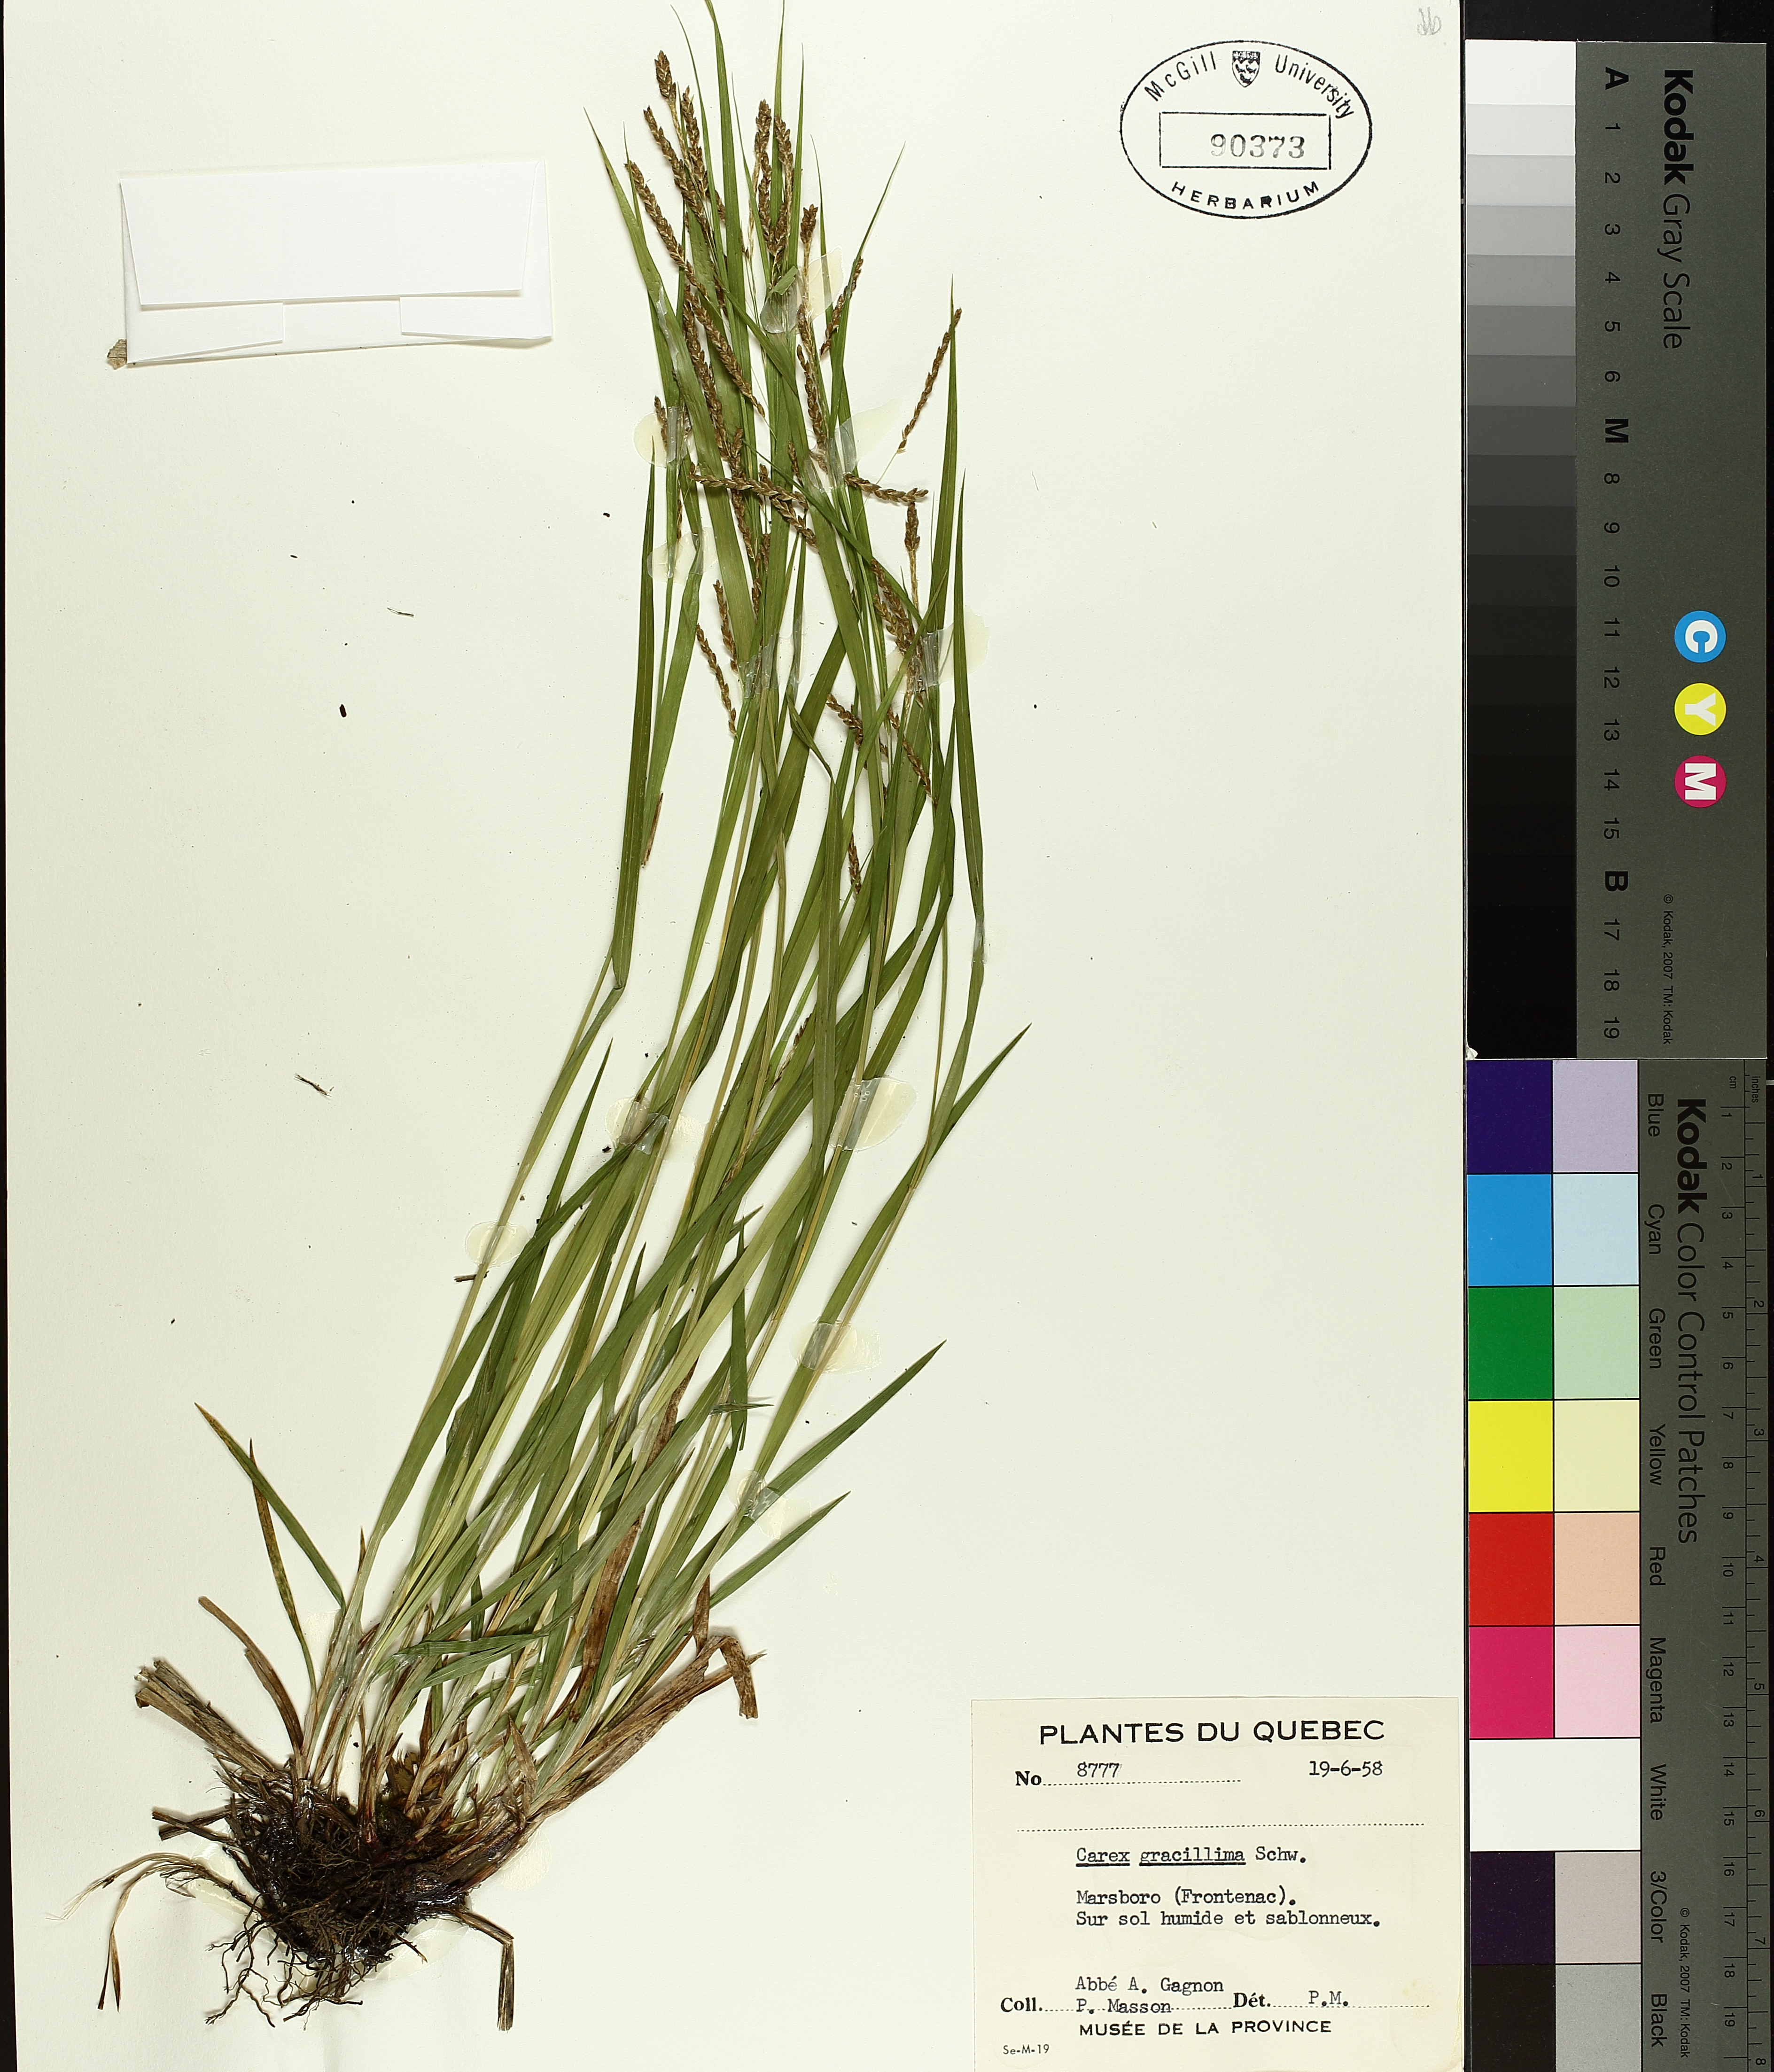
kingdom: Plantae
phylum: Tracheophyta
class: Liliopsida
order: Poales
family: Cyperaceae
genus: Carex
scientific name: Carex gracillima
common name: Graceful sedge
